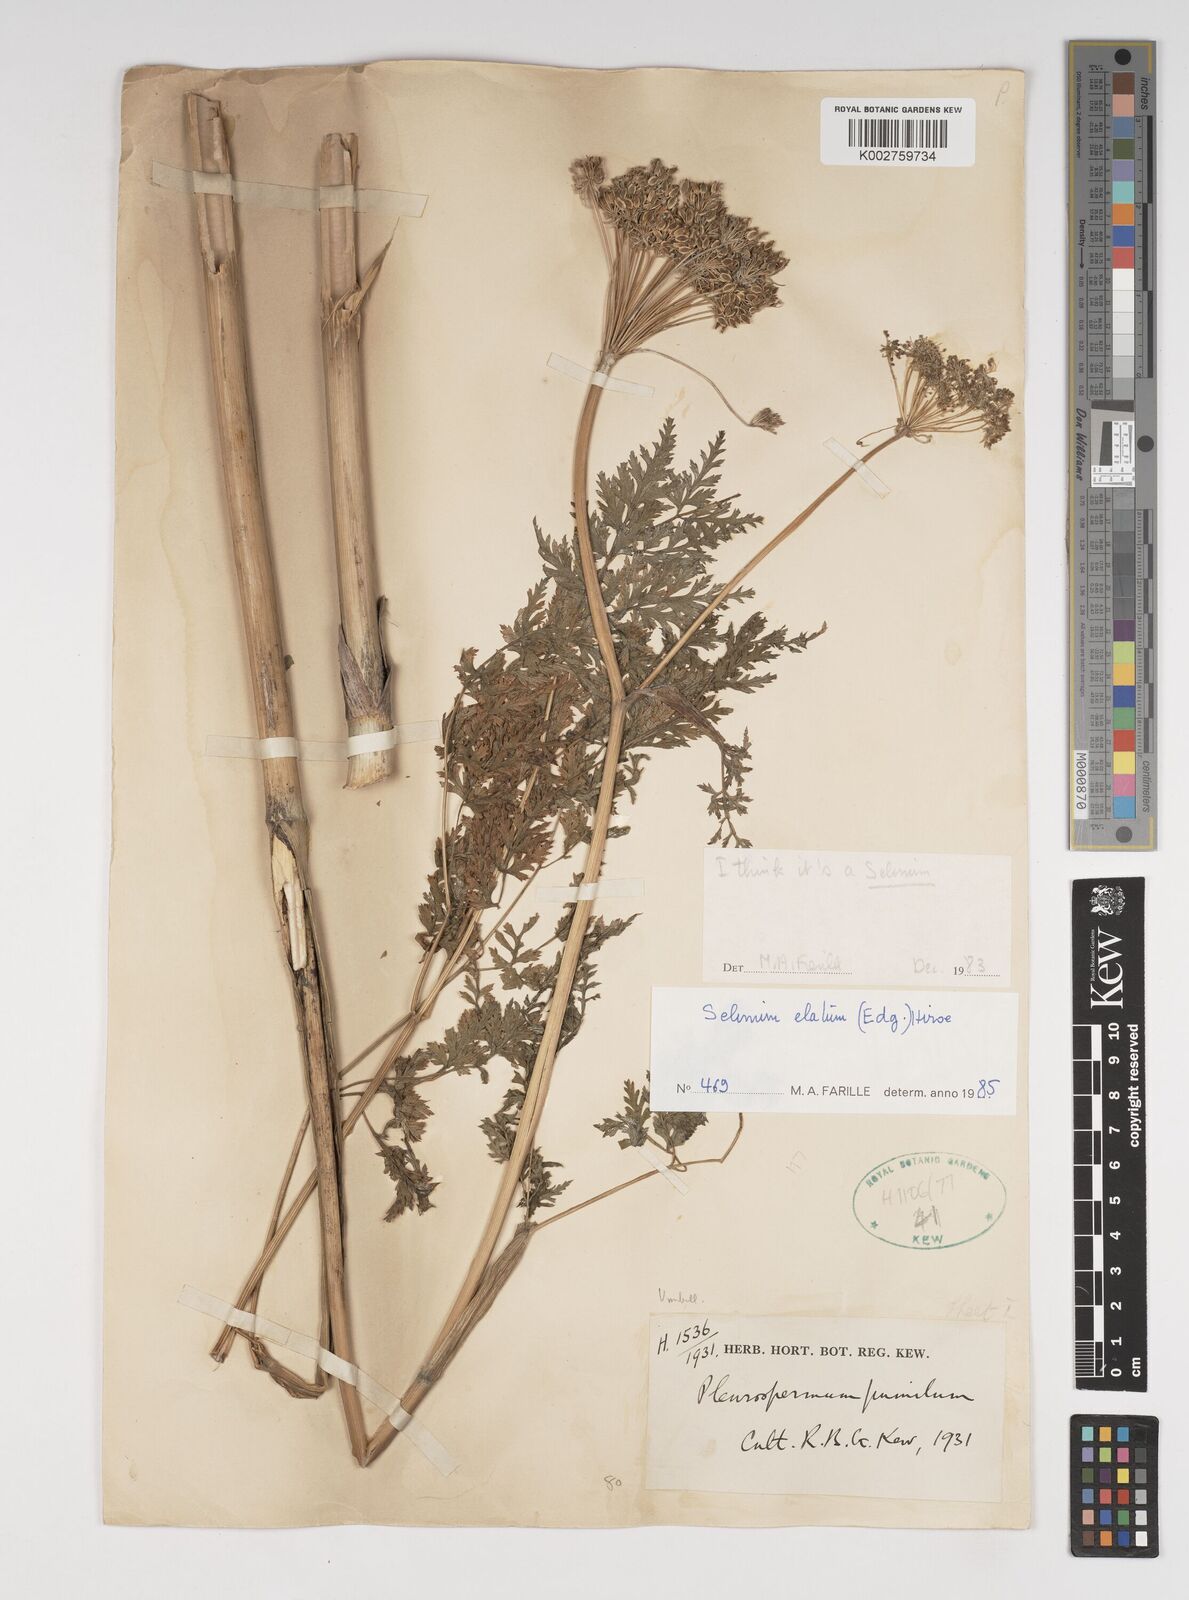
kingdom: Plantae
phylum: Tracheophyta
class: Magnoliopsida
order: Apiales
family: Apiaceae
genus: Ligusticopsis
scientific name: Ligusticopsis wallichiana
